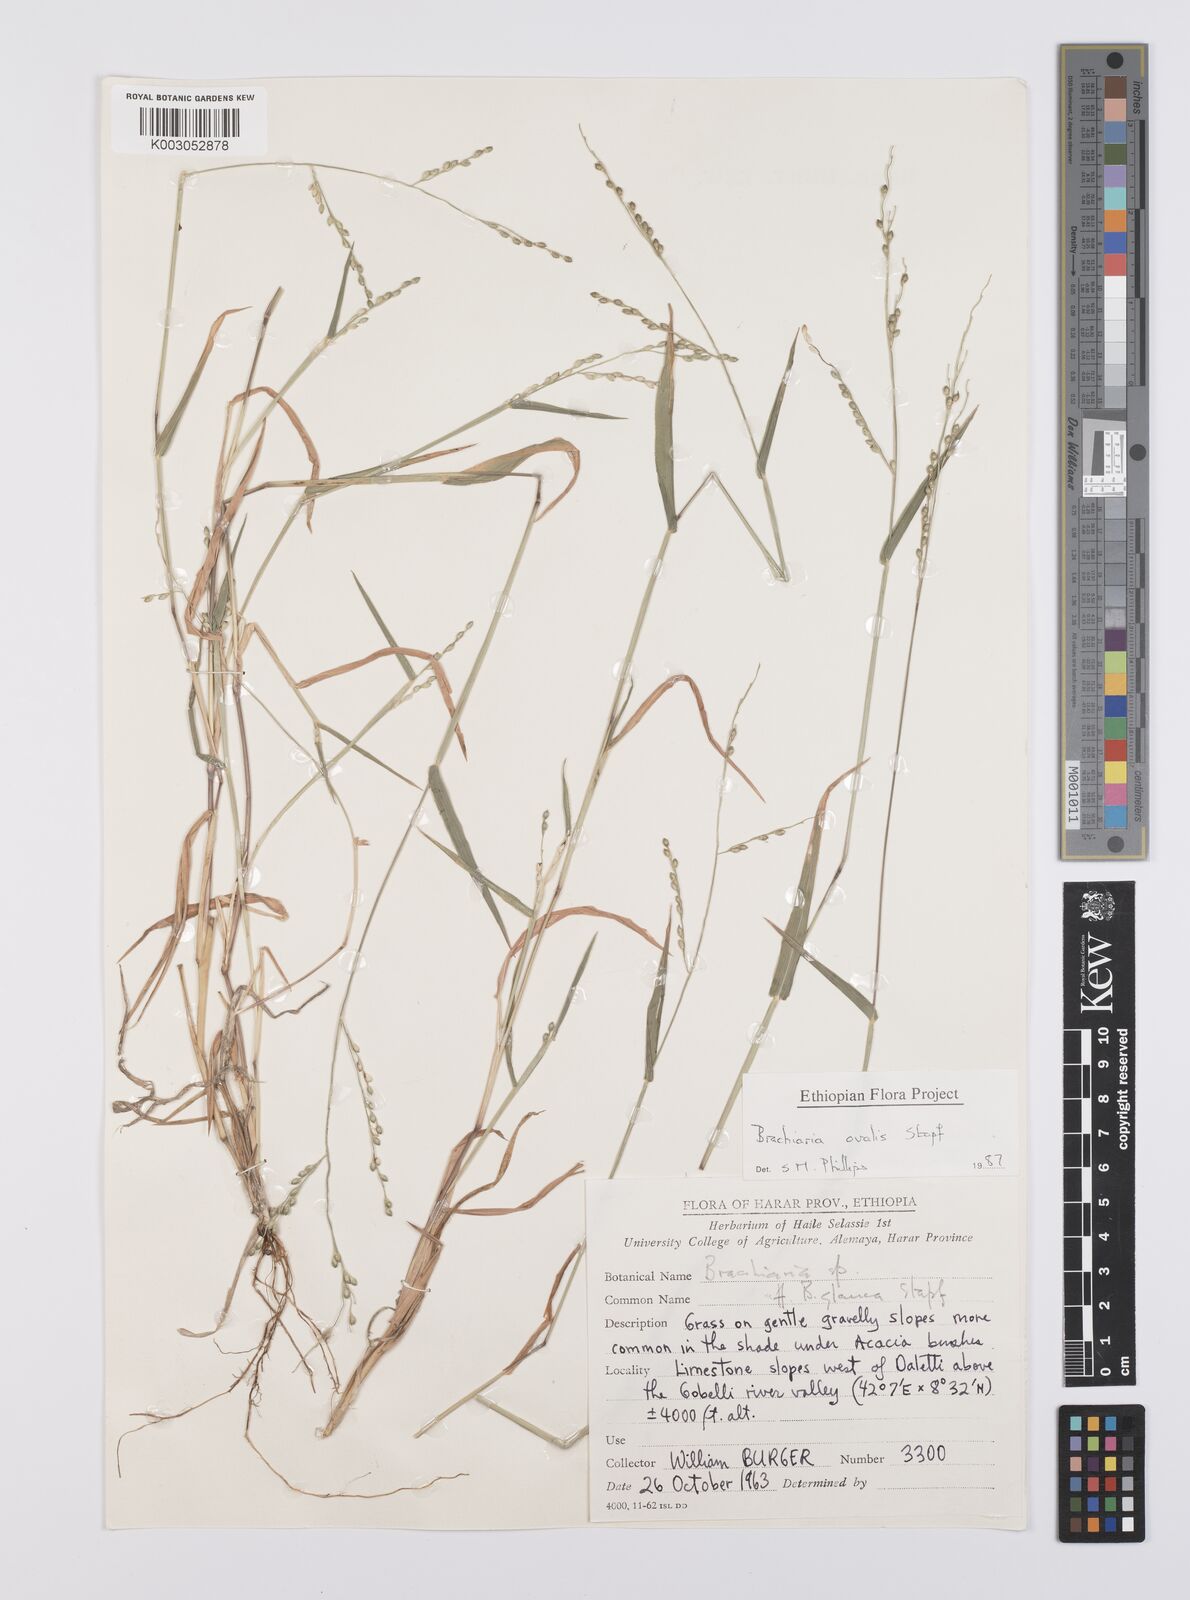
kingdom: Plantae
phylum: Tracheophyta
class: Liliopsida
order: Poales
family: Poaceae
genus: Urochloa
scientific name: Urochloa ovalis
